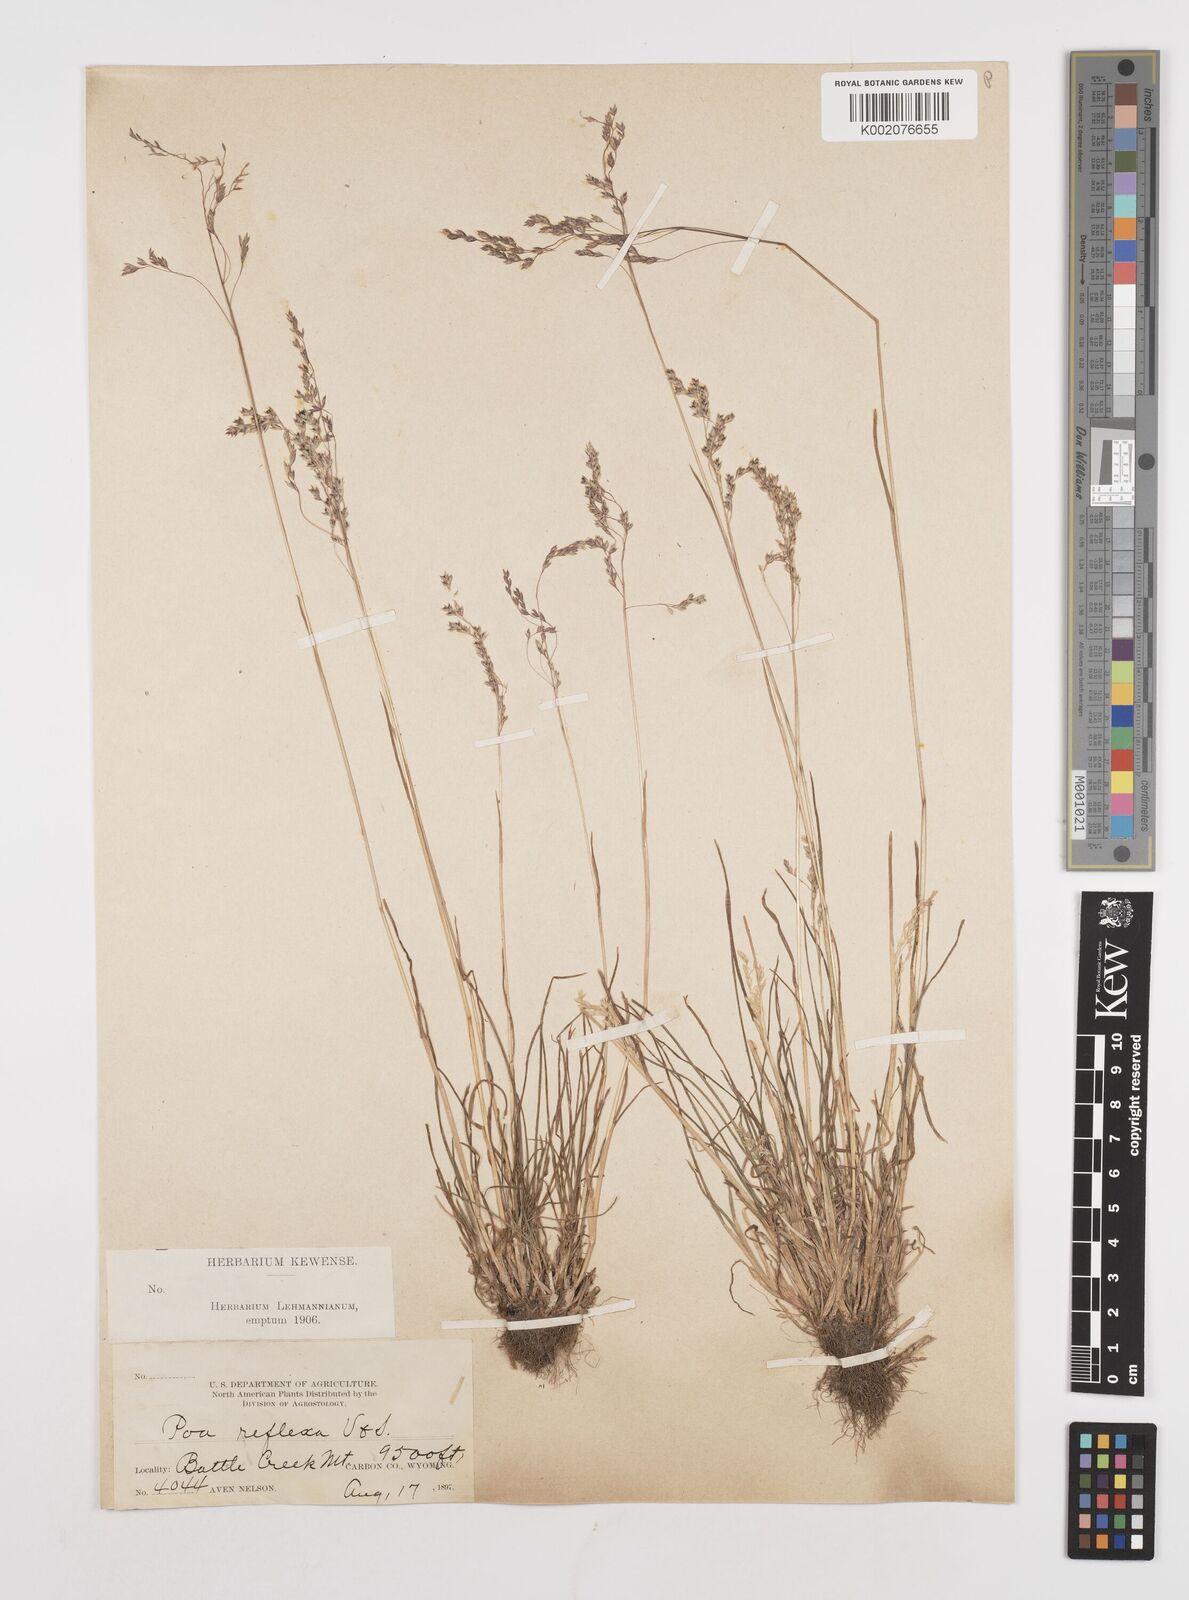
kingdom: Plantae
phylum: Tracheophyta
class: Liliopsida
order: Poales
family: Poaceae
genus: Poa
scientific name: Poa reflexa
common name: Nodding bluegrass
